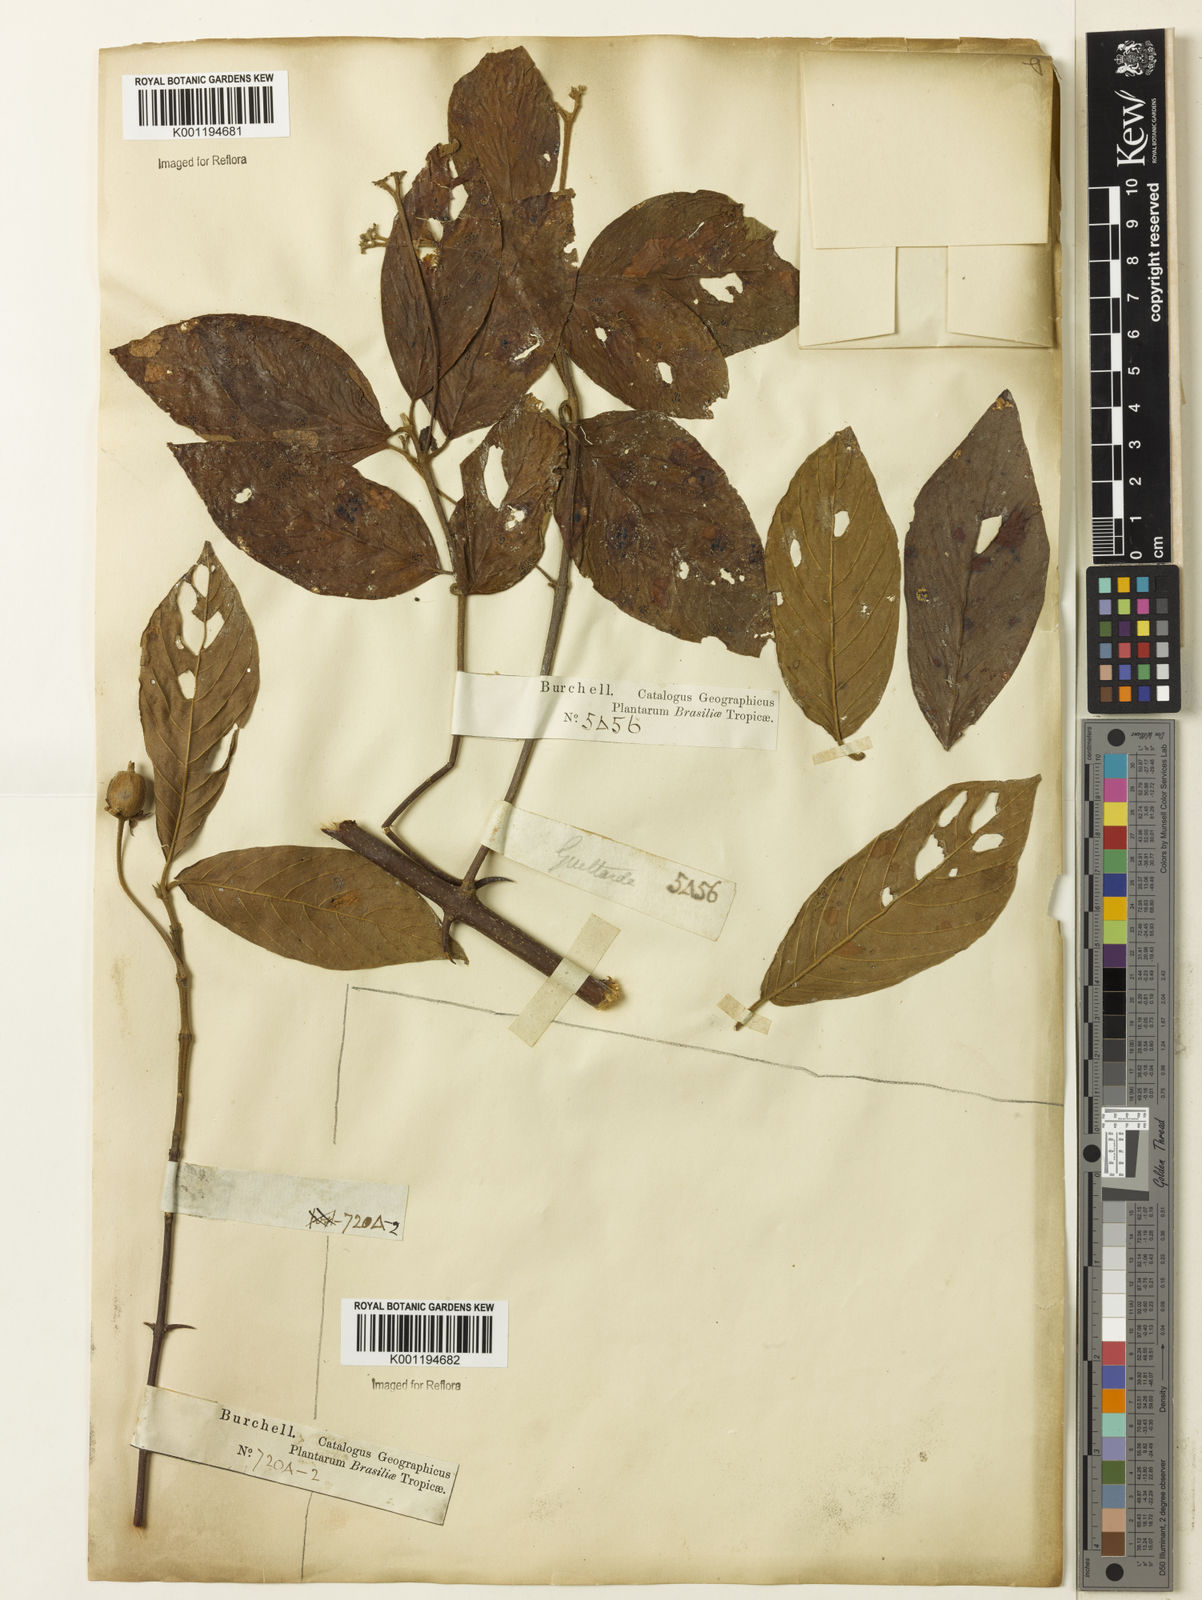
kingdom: Plantae
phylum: Tracheophyta
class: Magnoliopsida
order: Gentianales
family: Rubiaceae
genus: Guettarda
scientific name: Guettarda
